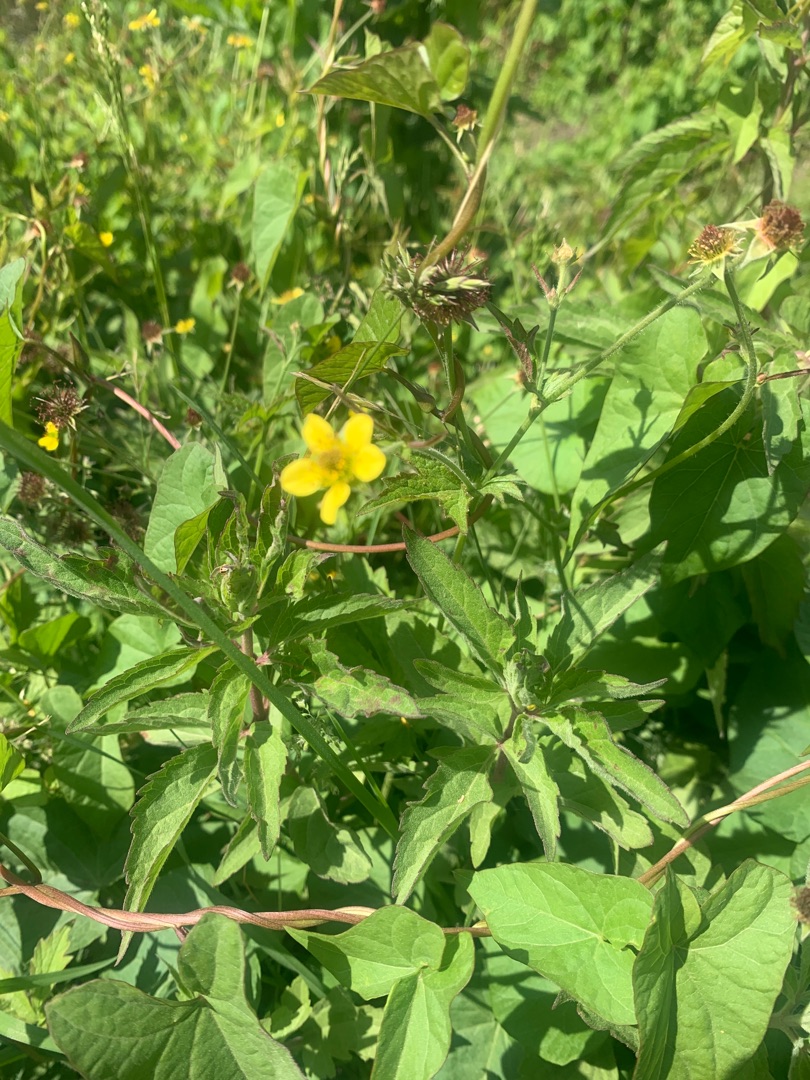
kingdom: Plantae
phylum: Tracheophyta
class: Magnoliopsida
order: Rosales
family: Rosaceae
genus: Geum
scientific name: Geum urbanum
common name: Feber-nellikerod
